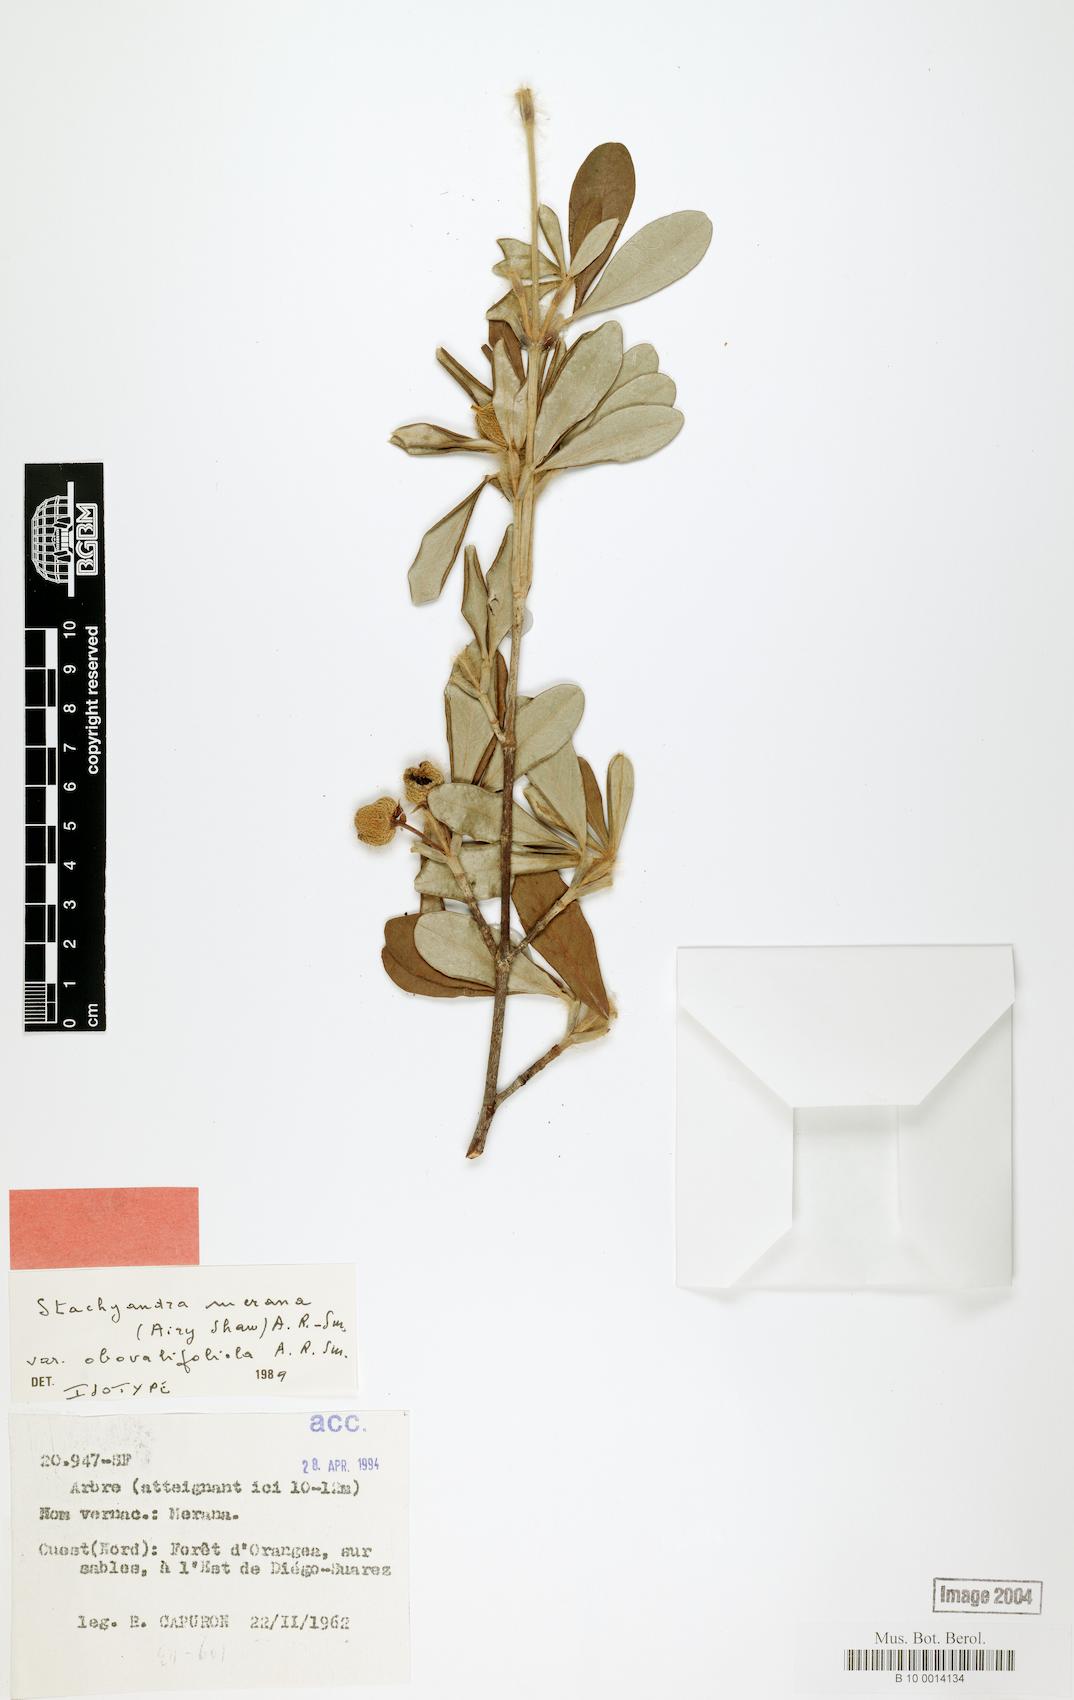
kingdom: Plantae
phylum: Tracheophyta
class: Magnoliopsida
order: Malpighiales
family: Picrodendraceae
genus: Stachyandra
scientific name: Stachyandra merana
